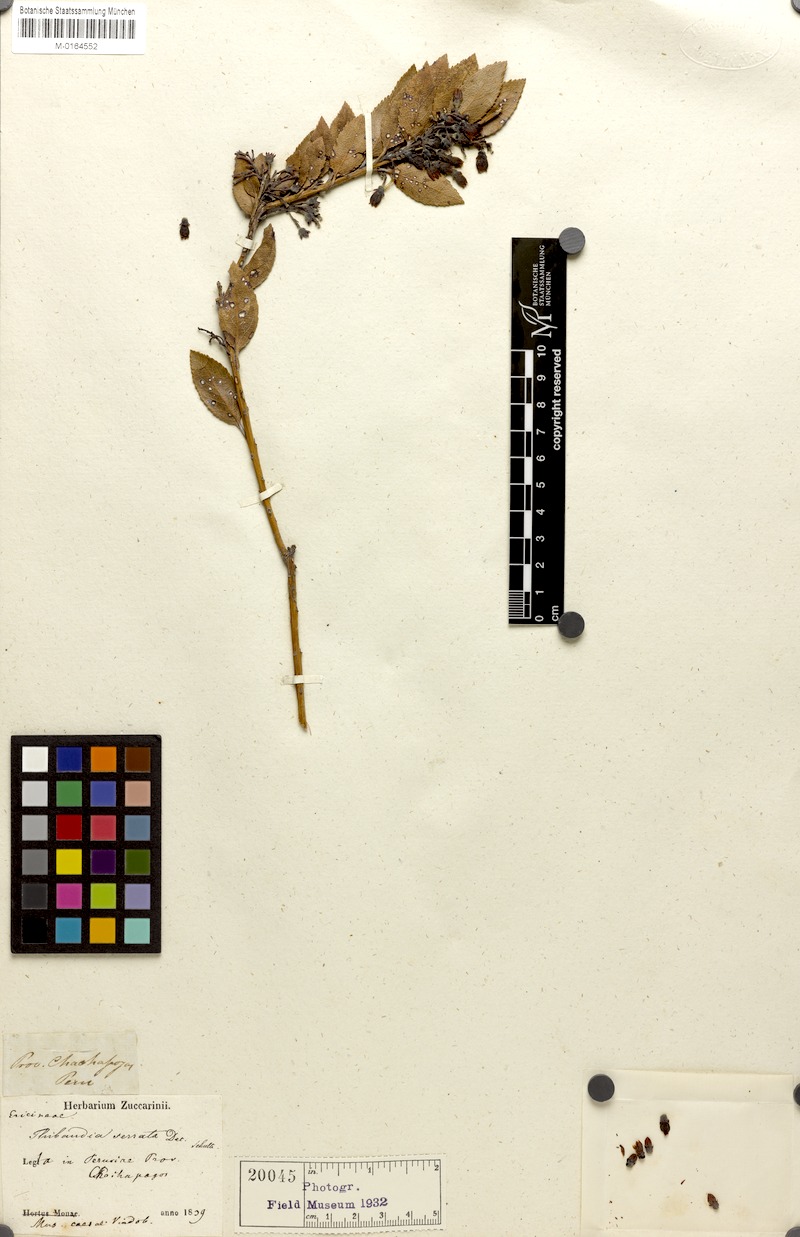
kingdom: Plantae
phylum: Tracheophyta
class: Magnoliopsida
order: Ericales
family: Ericaceae
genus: Vaccinium
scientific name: Vaccinium mathewsii
